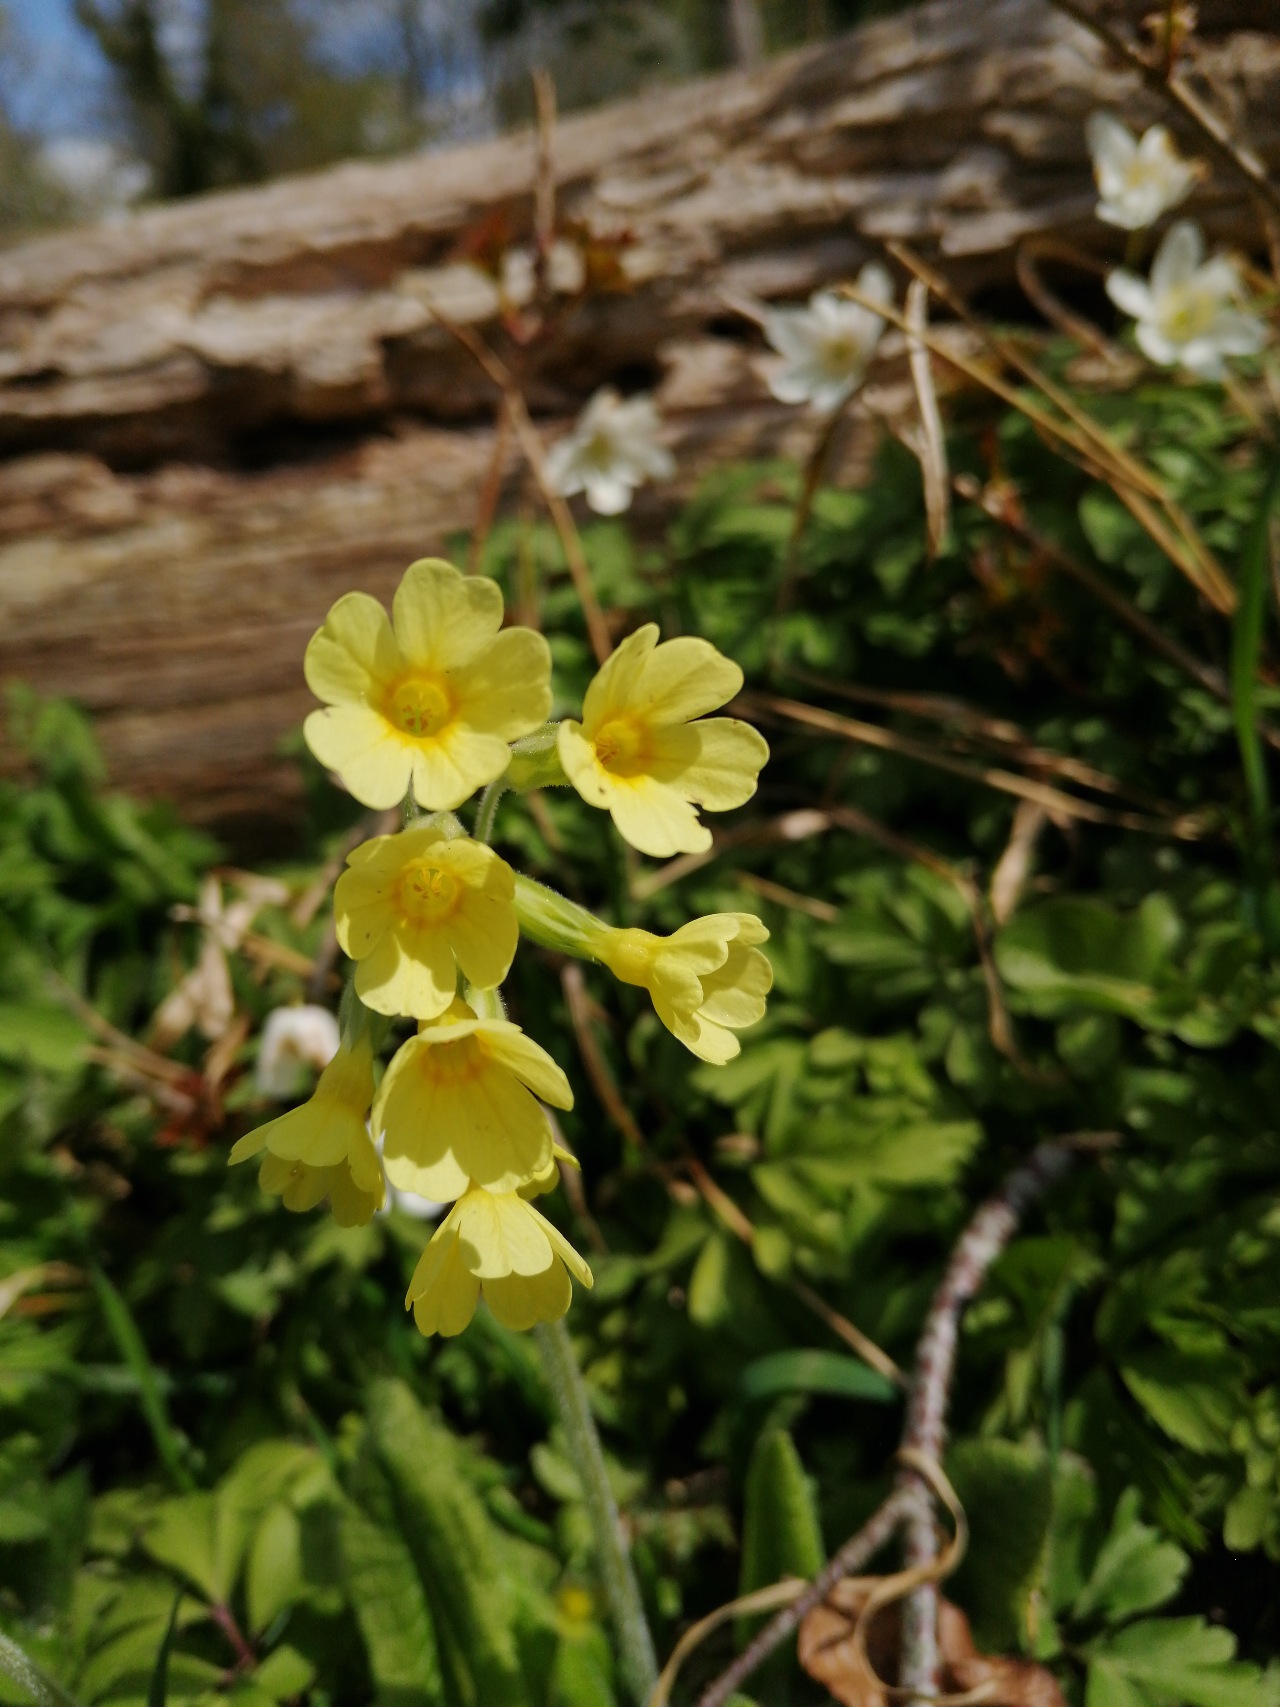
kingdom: Plantae
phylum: Tracheophyta
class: Magnoliopsida
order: Ericales
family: Primulaceae
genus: Primula
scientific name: Primula elatior
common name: Fladkravet kodriver
